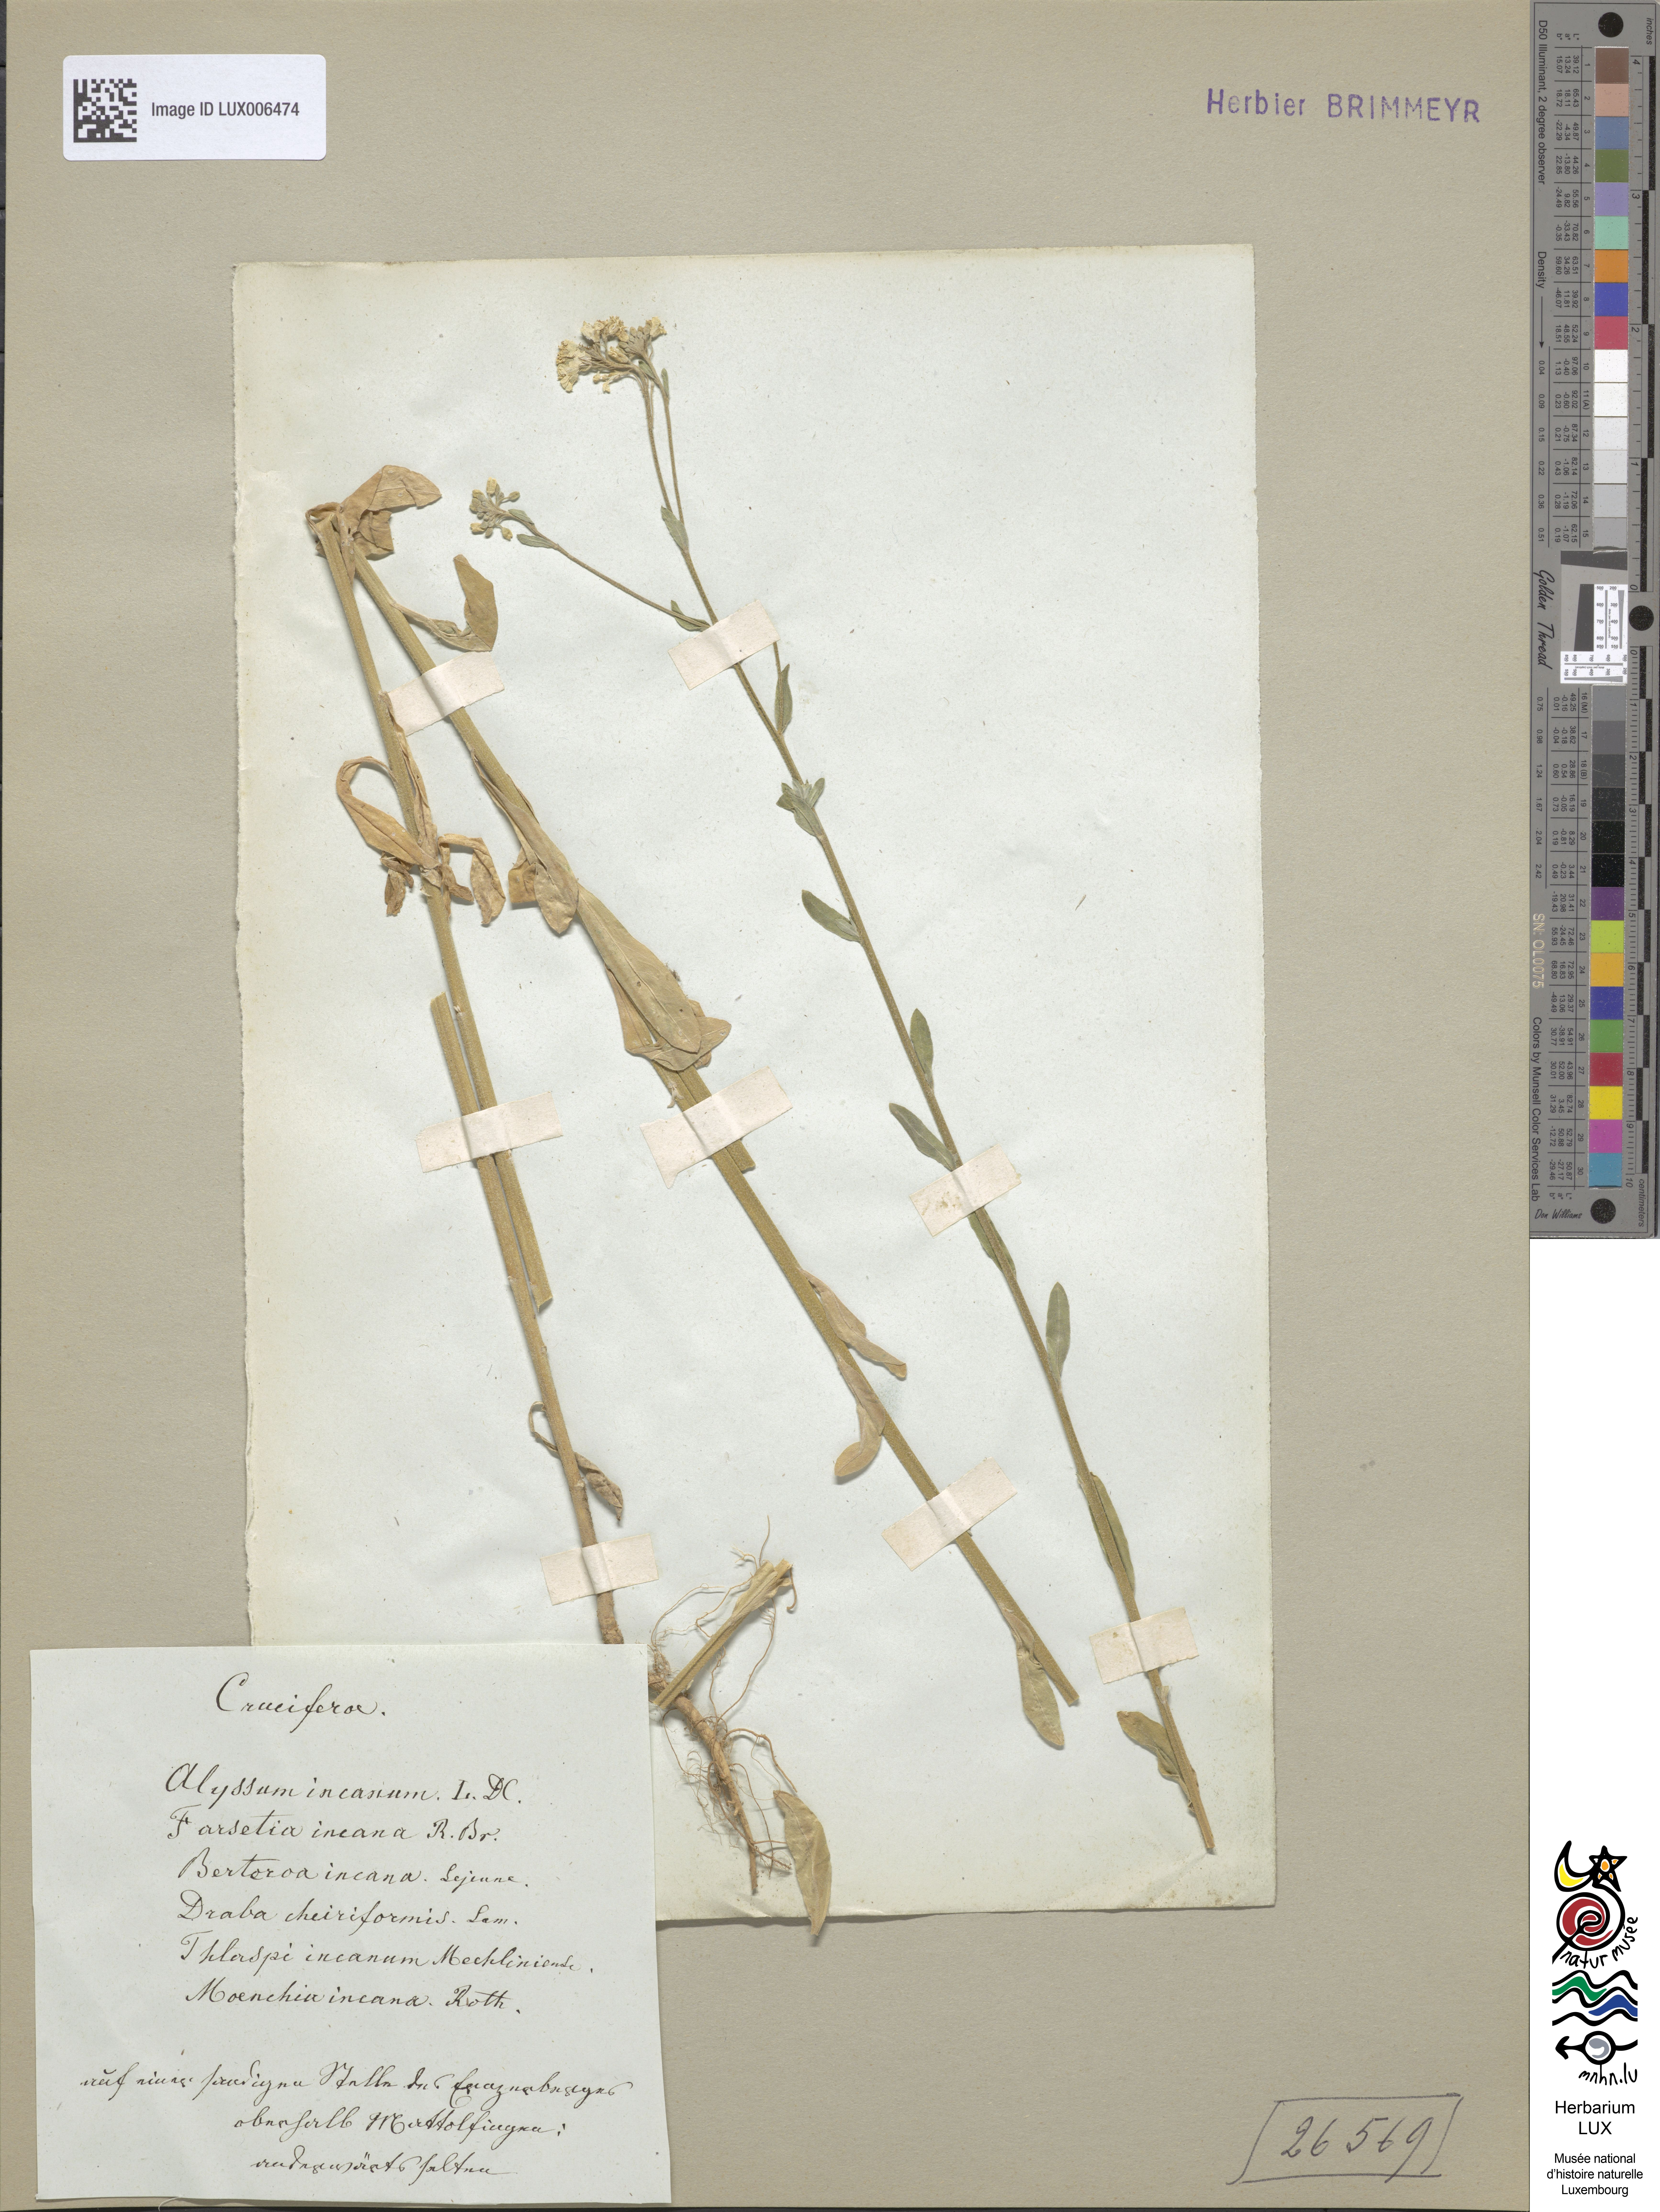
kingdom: Plantae
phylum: Tracheophyta
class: Magnoliopsida
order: Brassicales
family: Brassicaceae
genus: Berteroa
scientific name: Berteroa incana
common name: Hoary alison
